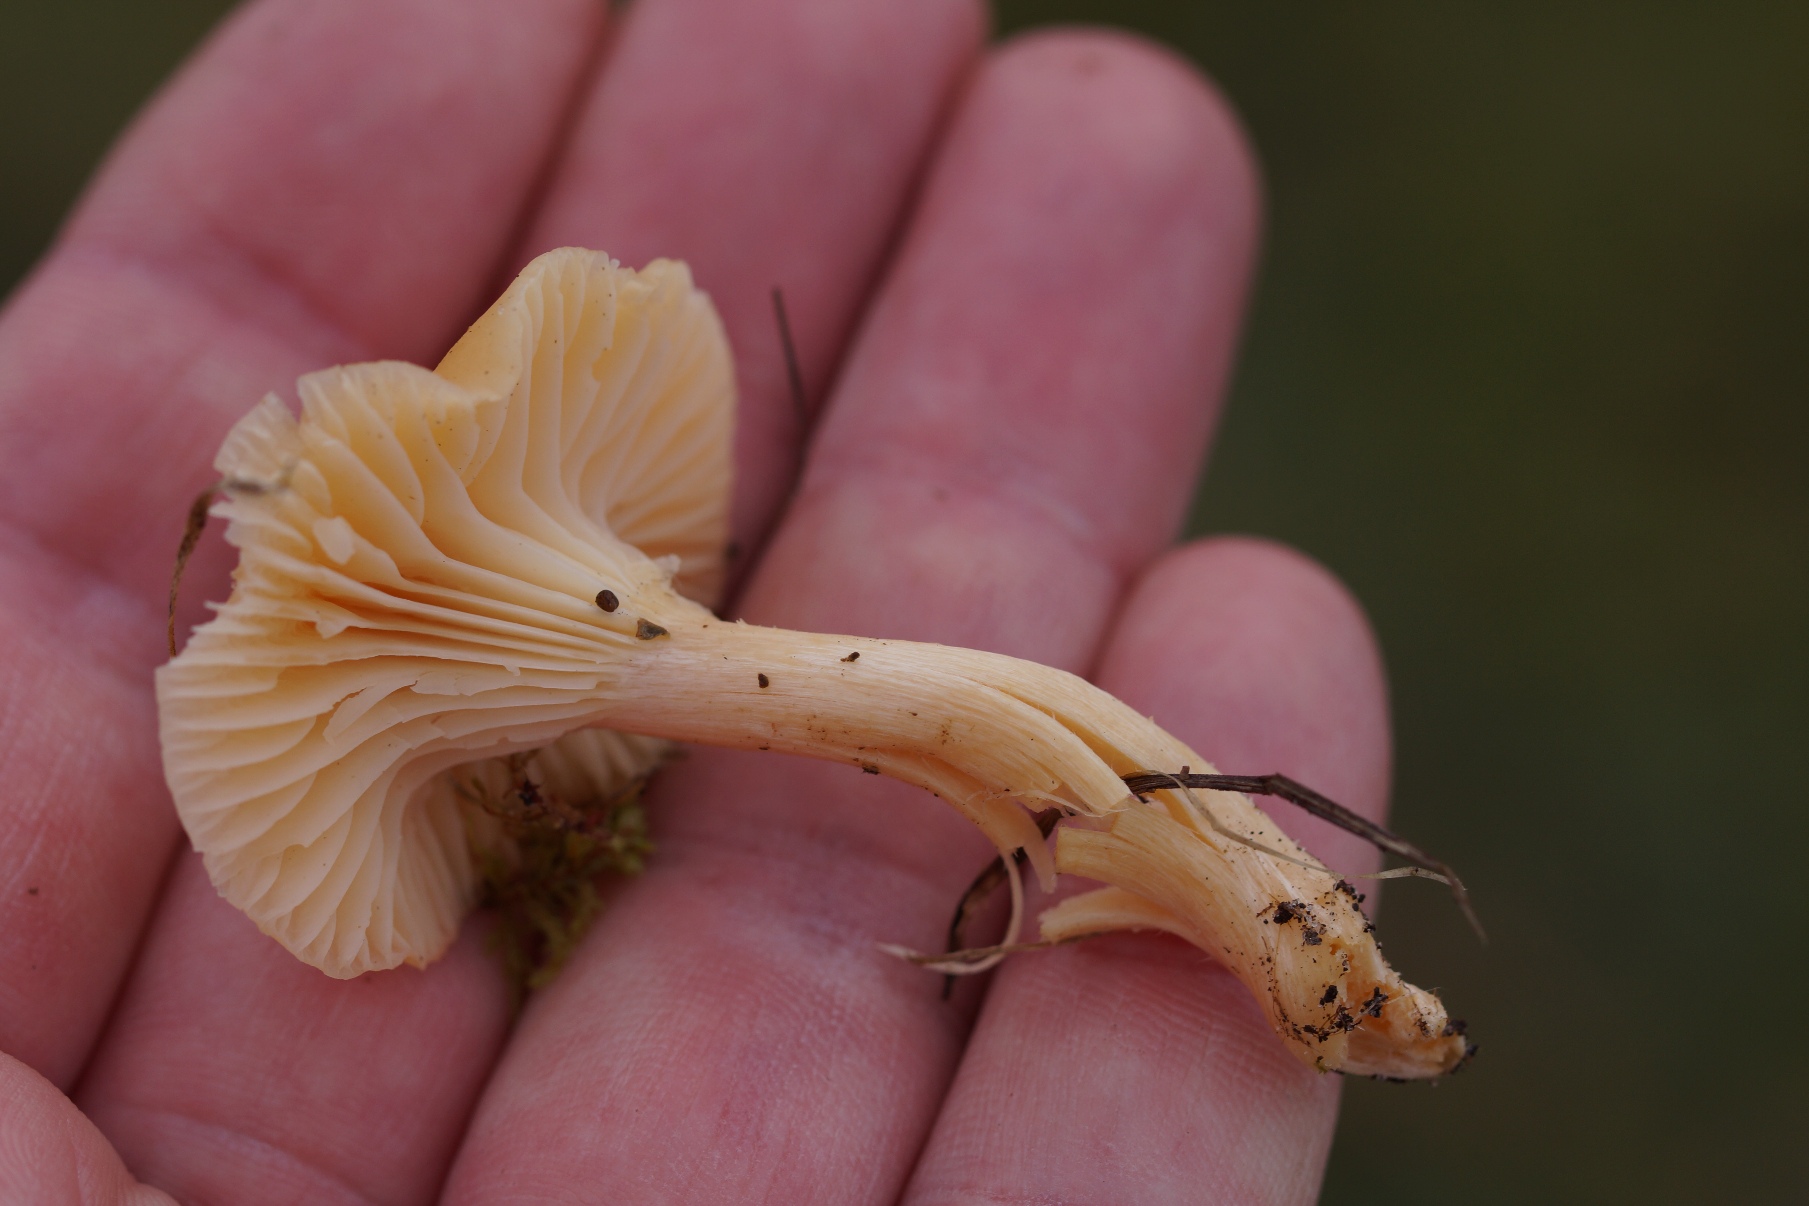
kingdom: Fungi
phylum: Basidiomycota
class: Agaricomycetes
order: Agaricales
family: Hygrophoraceae
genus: Cuphophyllus
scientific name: Cuphophyllus pratensis
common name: Eng-vokshat
